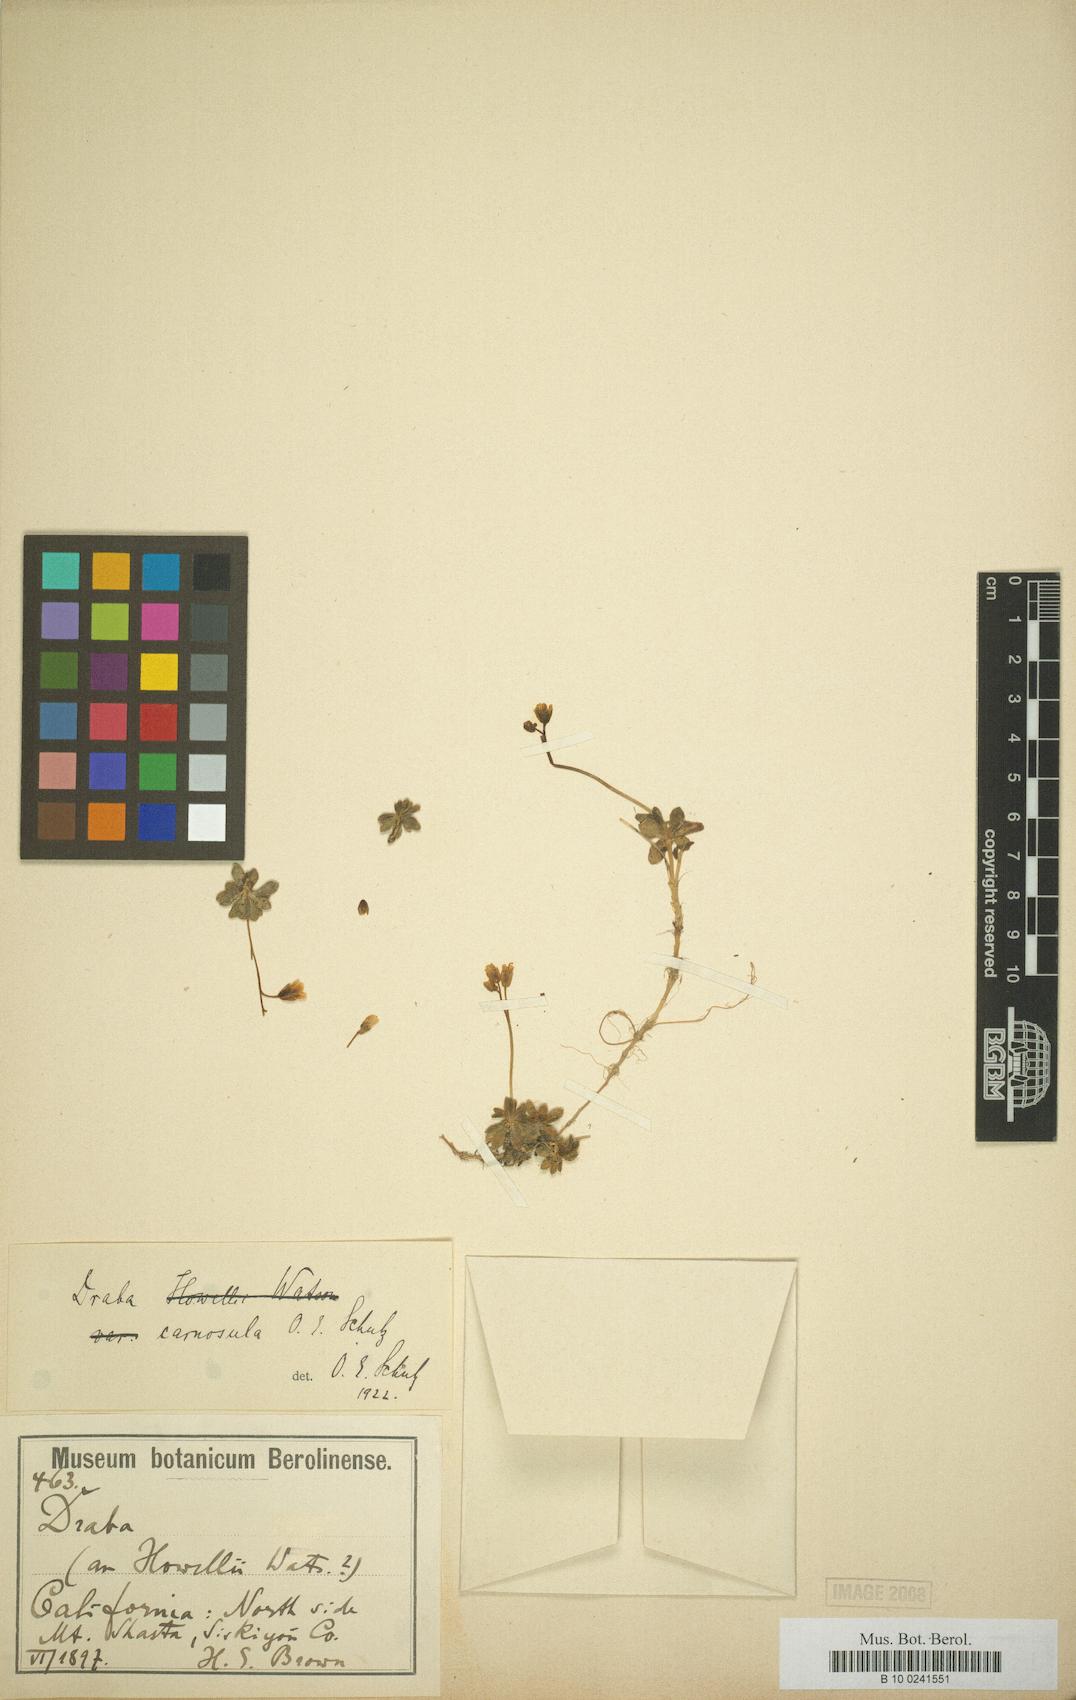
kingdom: Plantae
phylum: Tracheophyta
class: Magnoliopsida
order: Brassicales
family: Brassicaceae
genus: Draba
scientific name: Draba carnosula
